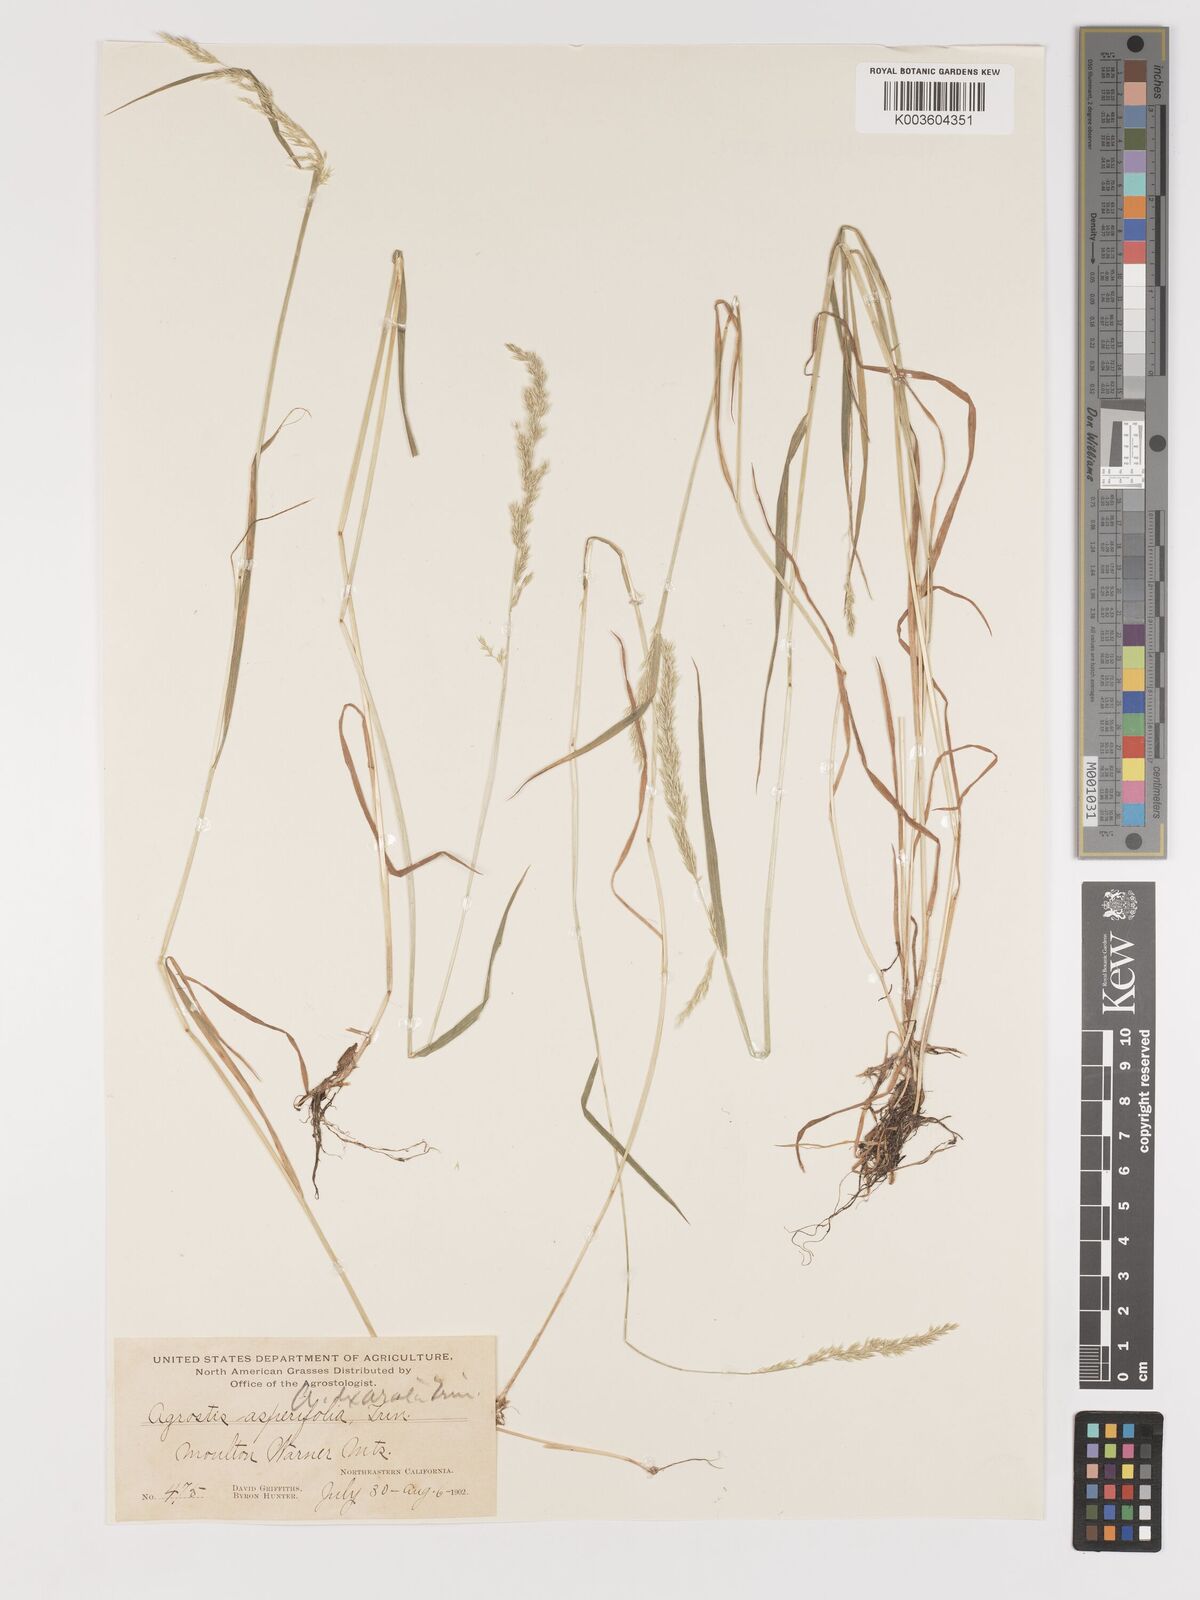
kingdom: Plantae
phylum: Tracheophyta
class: Liliopsida
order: Poales
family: Poaceae
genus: Agrostis
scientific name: Agrostis exarata
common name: Spike bent
